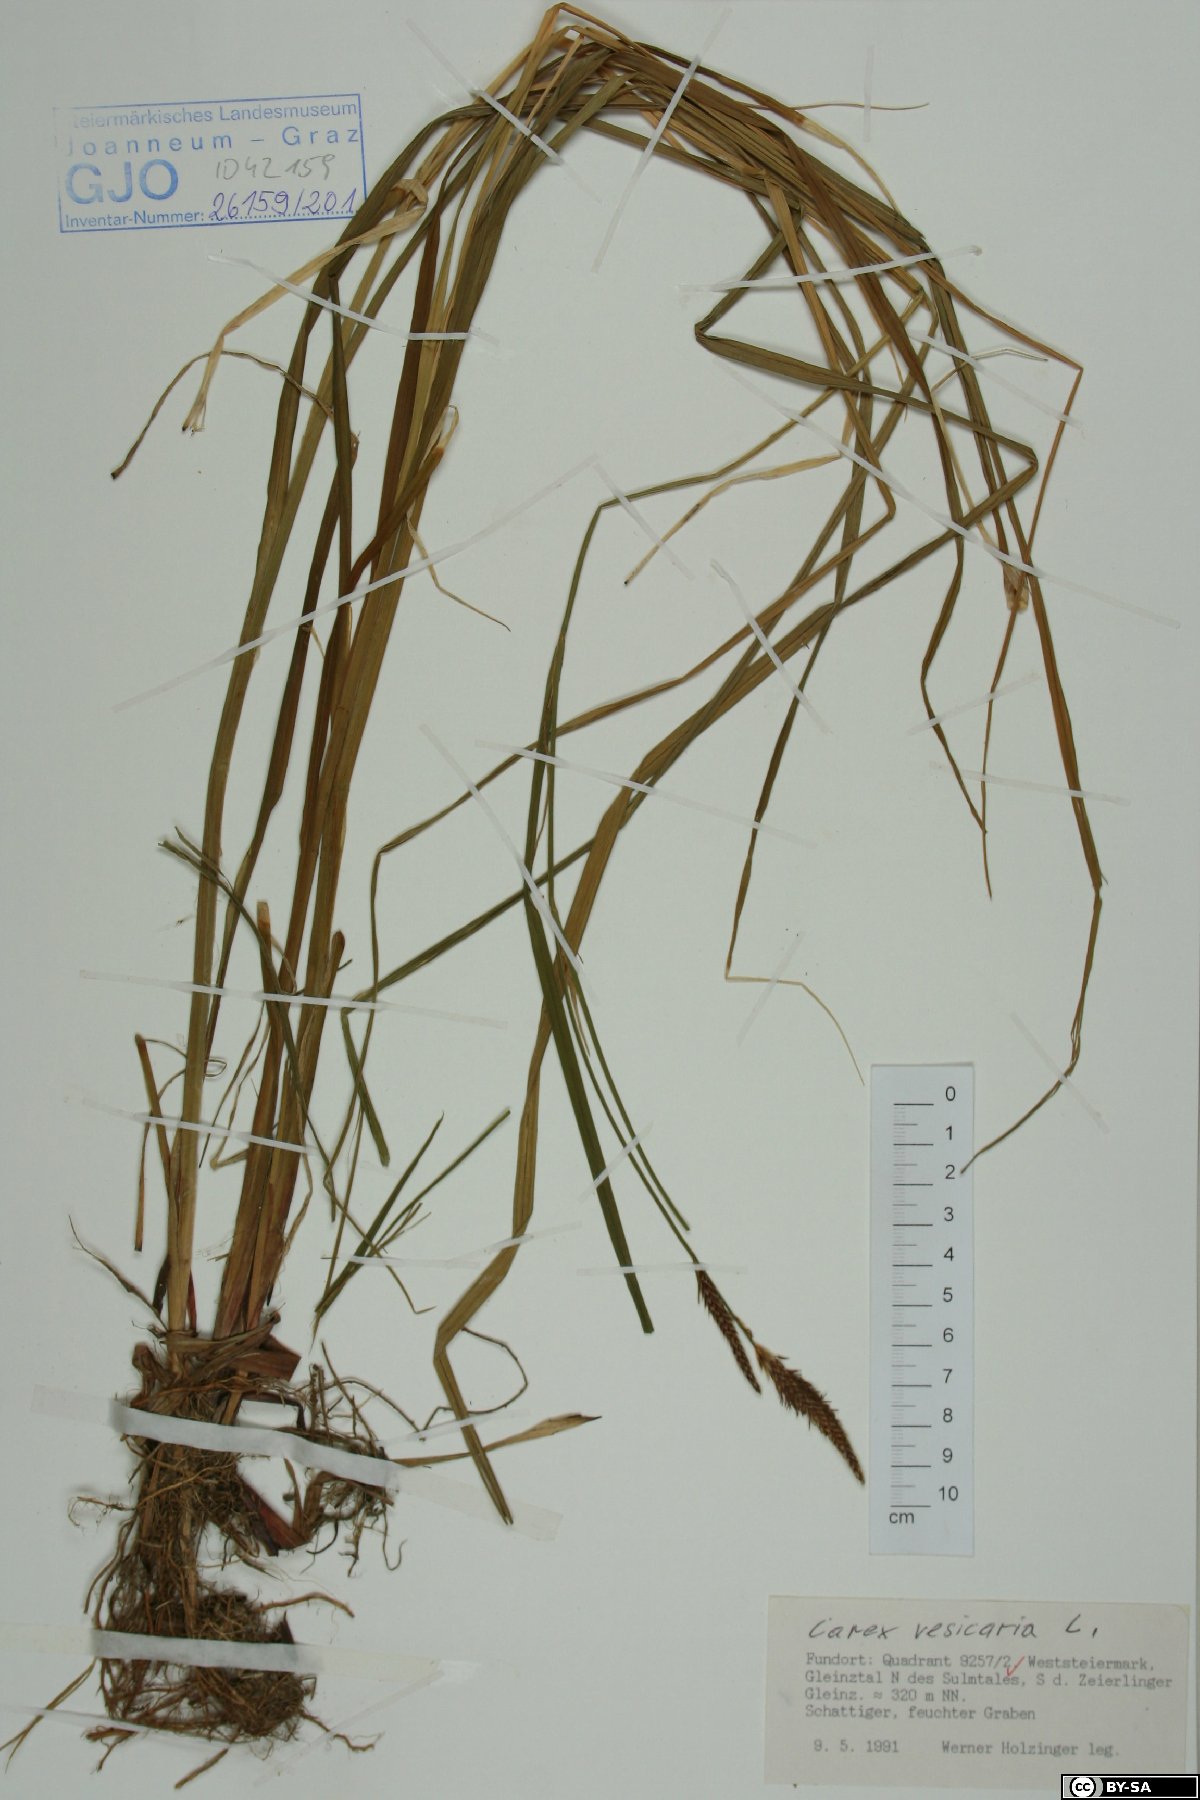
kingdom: Plantae
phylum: Tracheophyta
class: Liliopsida
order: Poales
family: Cyperaceae
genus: Carex
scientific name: Carex vesicaria
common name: Bladder-sedge
